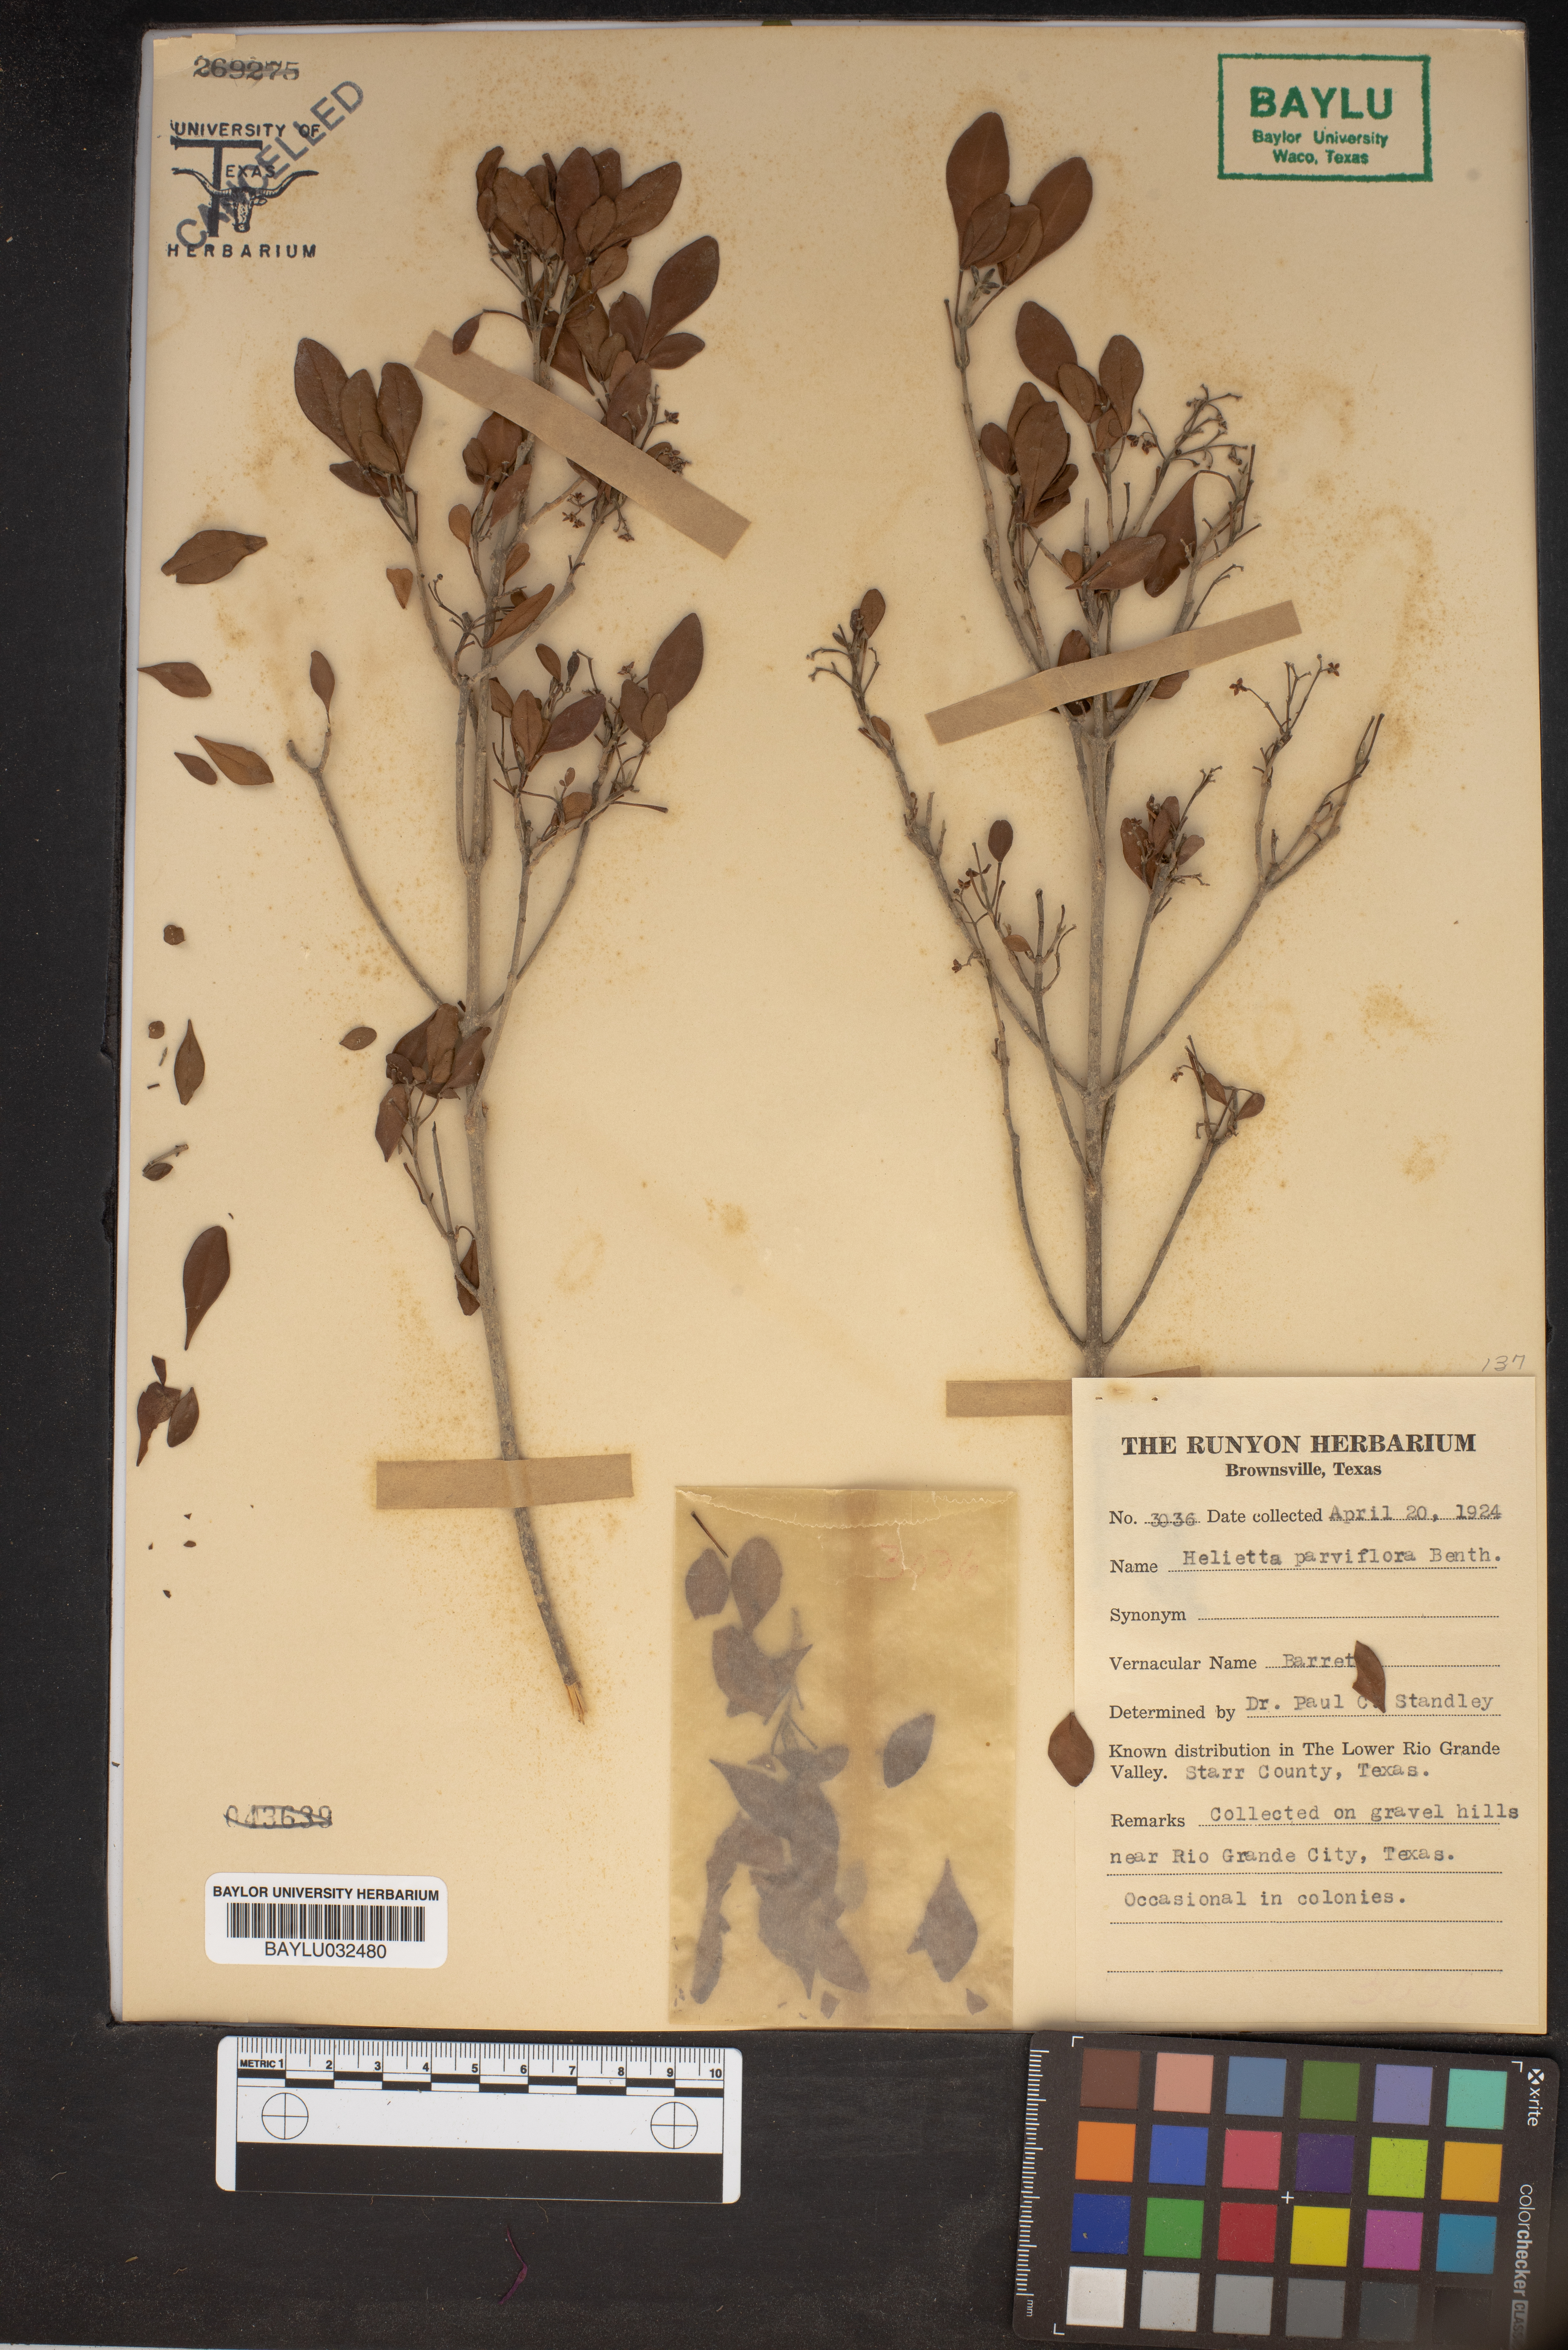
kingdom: Plantae
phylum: Tracheophyta
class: Magnoliopsida
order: Sapindales
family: Rutaceae
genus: Helietta
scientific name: Helietta parvifolia
